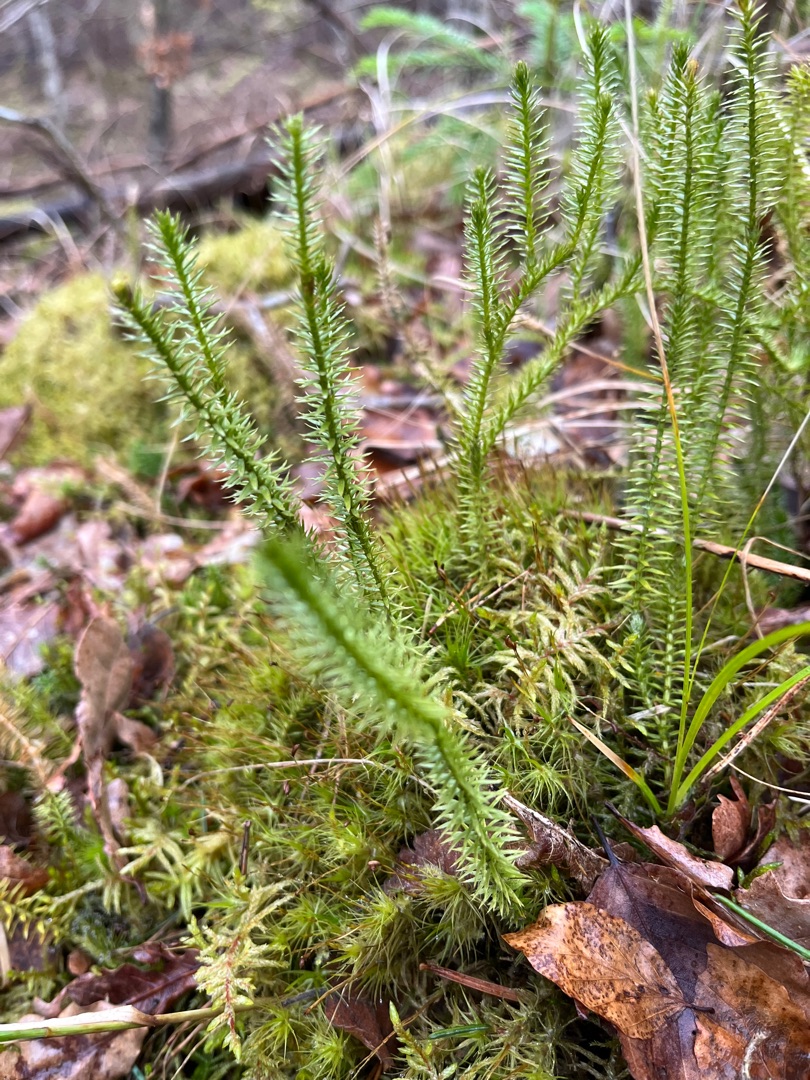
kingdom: Plantae
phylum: Tracheophyta
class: Lycopodiopsida
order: Lycopodiales
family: Lycopodiaceae
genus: Spinulum
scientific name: Spinulum annotinum
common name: Femradet ulvefod
